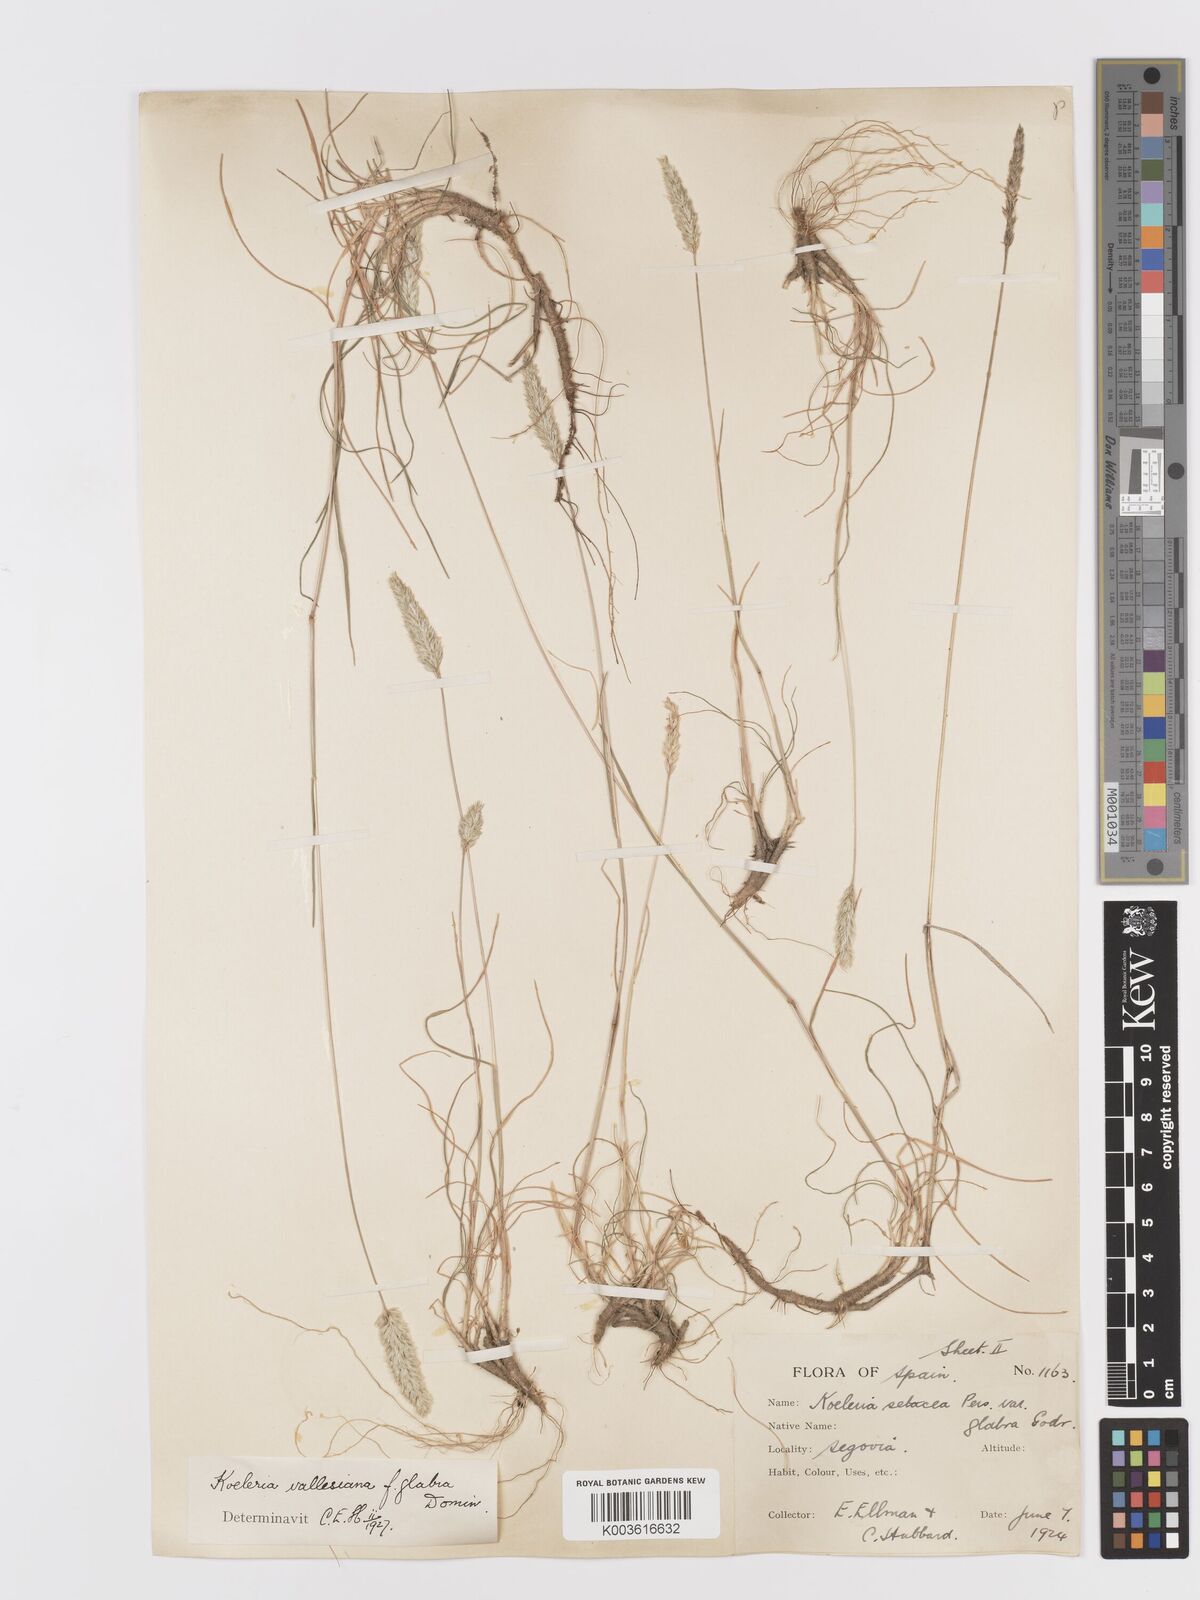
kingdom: Plantae
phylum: Tracheophyta
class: Liliopsida
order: Poales
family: Poaceae
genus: Koeleria
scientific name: Koeleria vallesiana
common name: Somerset hair-grass
